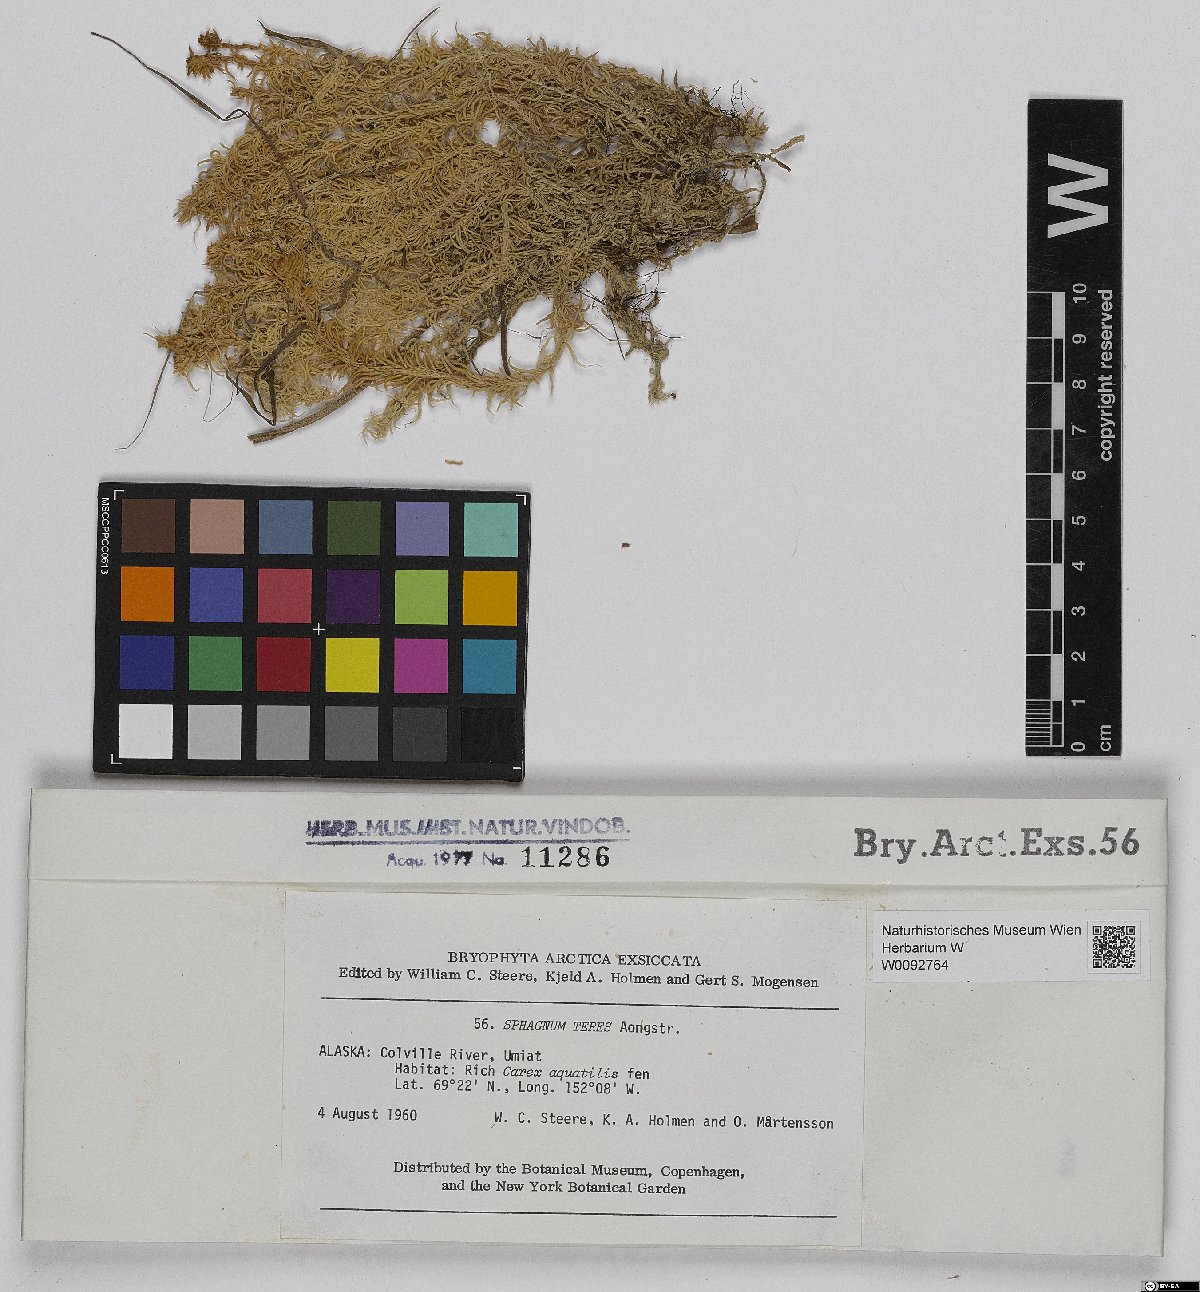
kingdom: Plantae
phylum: Bryophyta
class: Sphagnopsida
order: Sphagnales
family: Sphagnaceae
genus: Sphagnum
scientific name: Sphagnum teres
